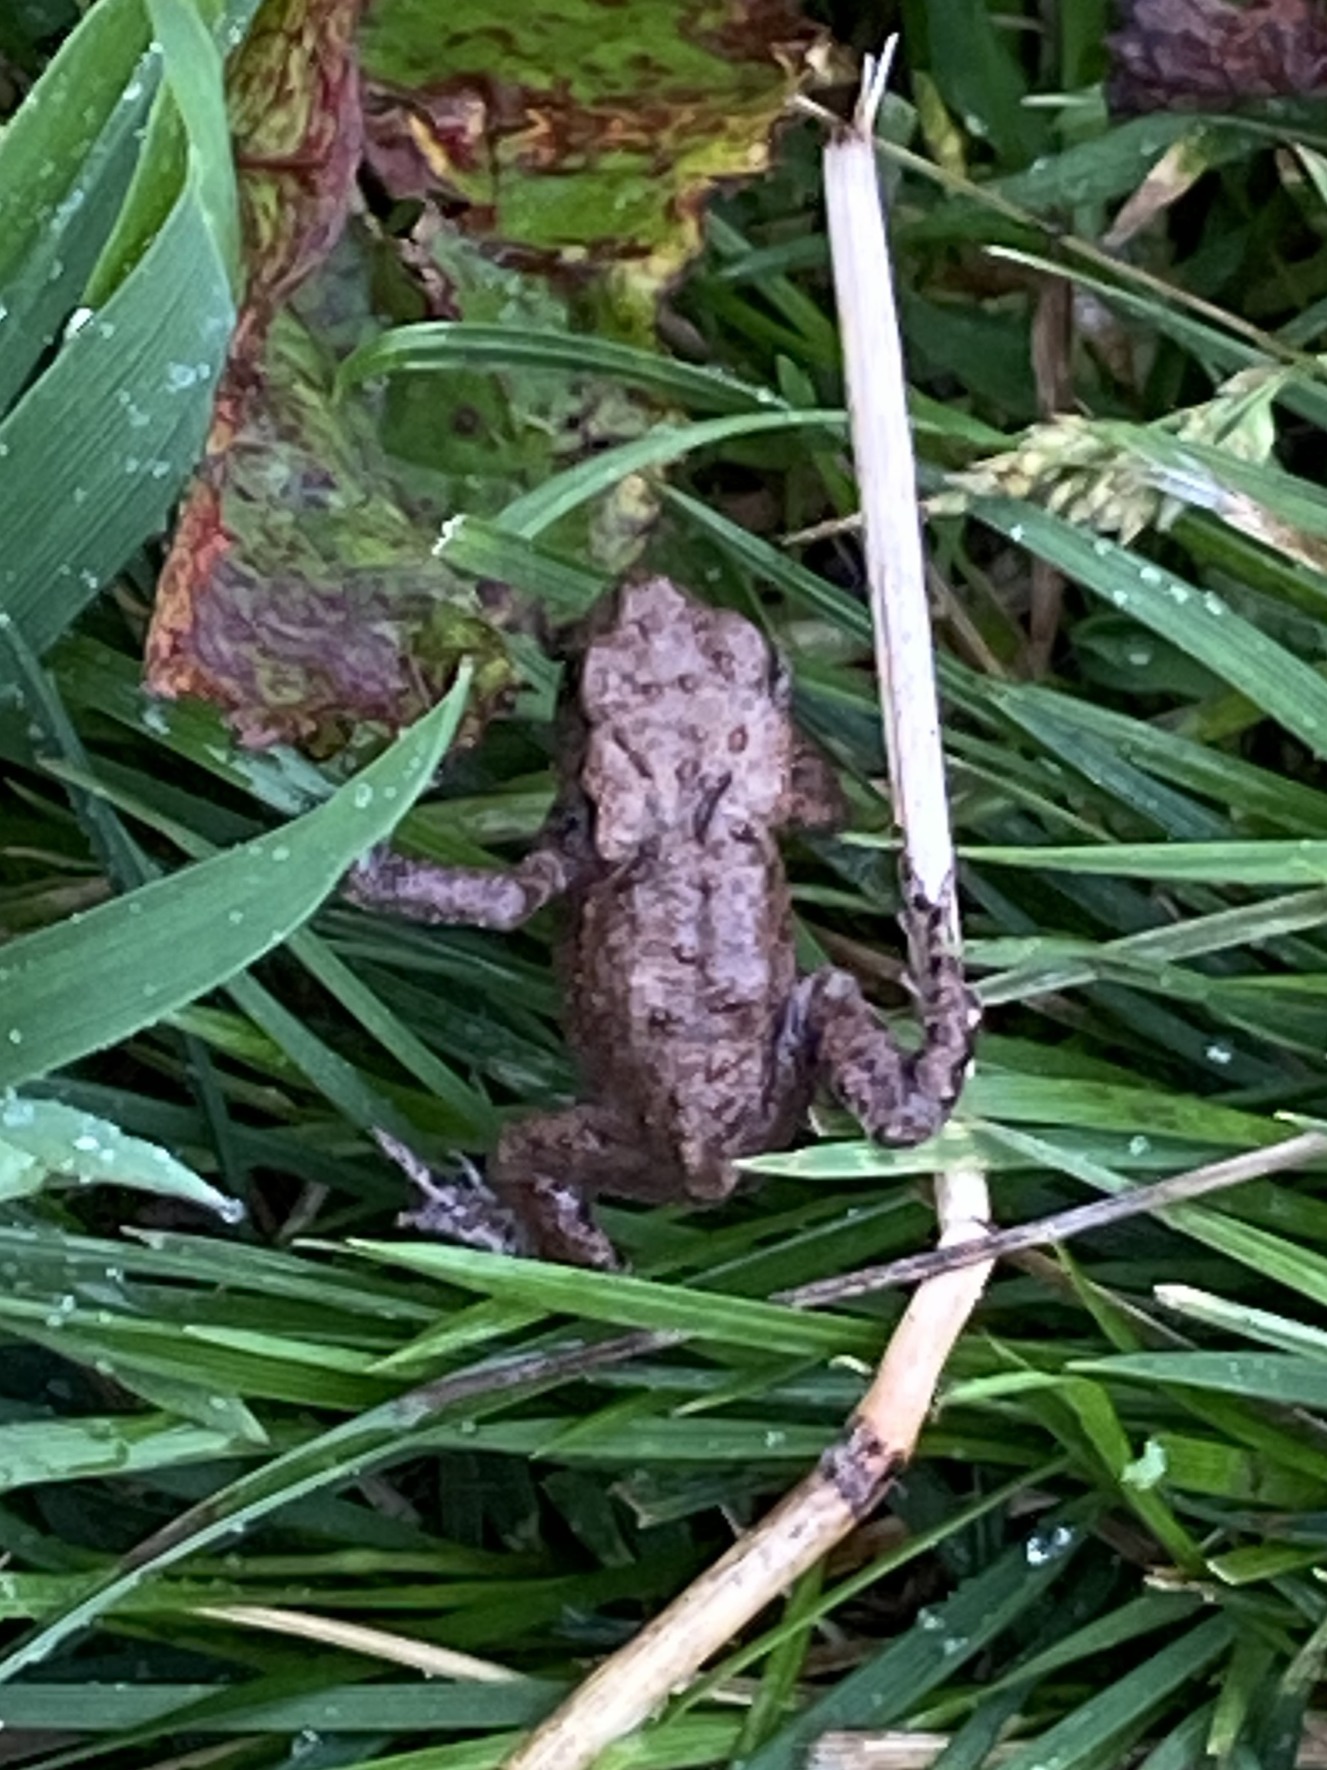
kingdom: Animalia
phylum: Chordata
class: Amphibia
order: Anura
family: Bufonidae
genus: Bufo
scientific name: Bufo bufo
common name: Skrubtudse
